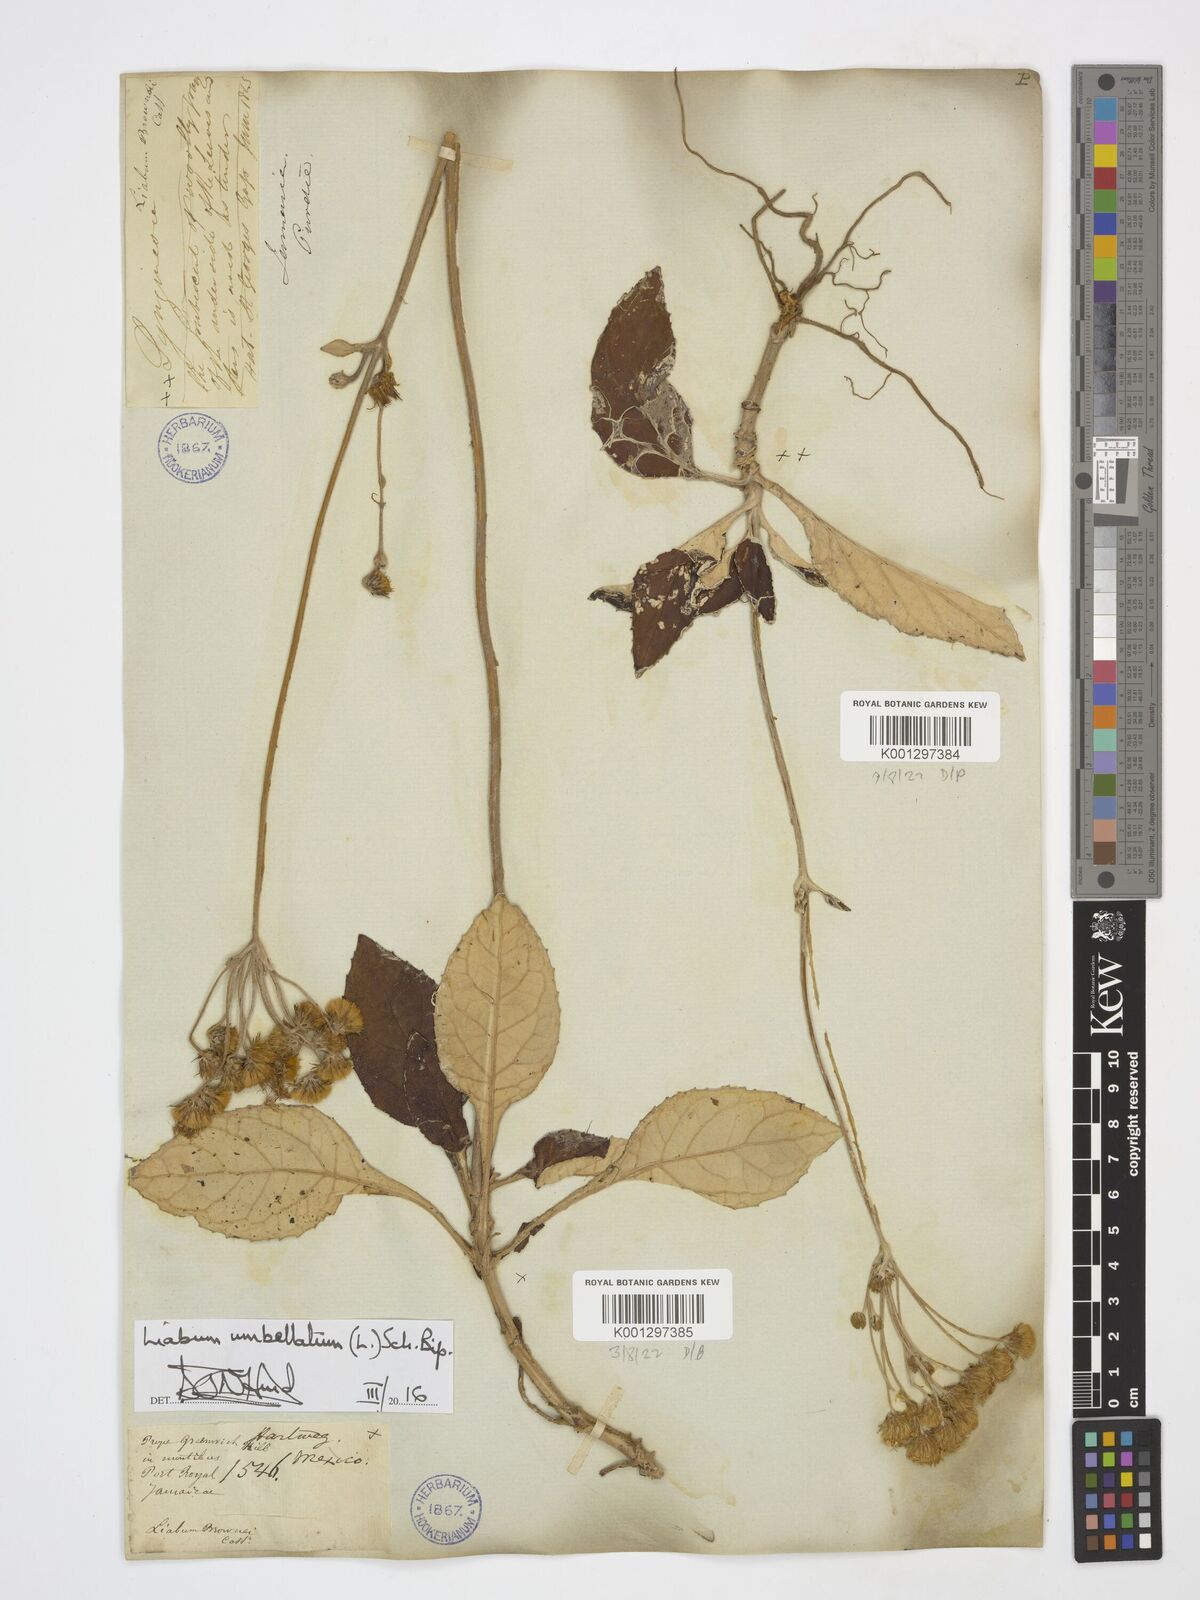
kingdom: Plantae
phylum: Tracheophyta
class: Magnoliopsida
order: Asterales
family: Asteraceae
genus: Liabum
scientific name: Liabum umbellatum
